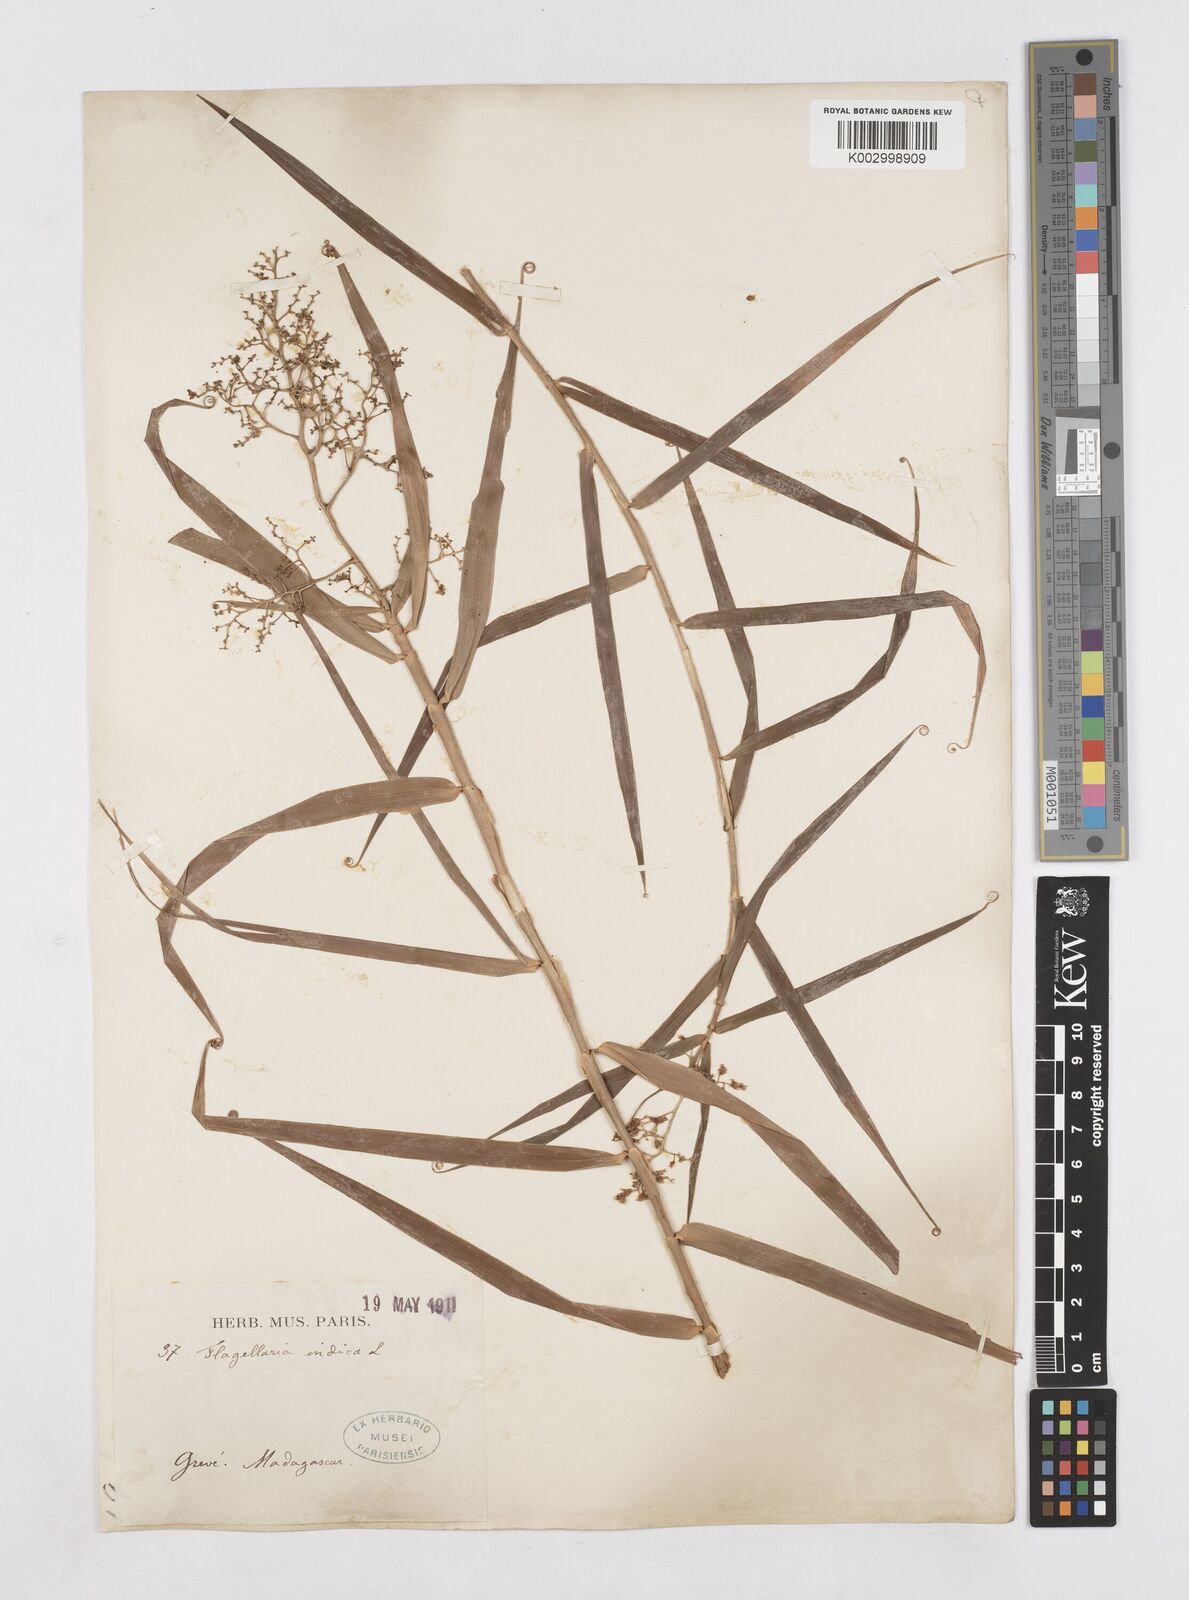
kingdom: Plantae
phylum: Tracheophyta
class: Liliopsida
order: Poales
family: Flagellariaceae
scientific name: Flagellariaceae
